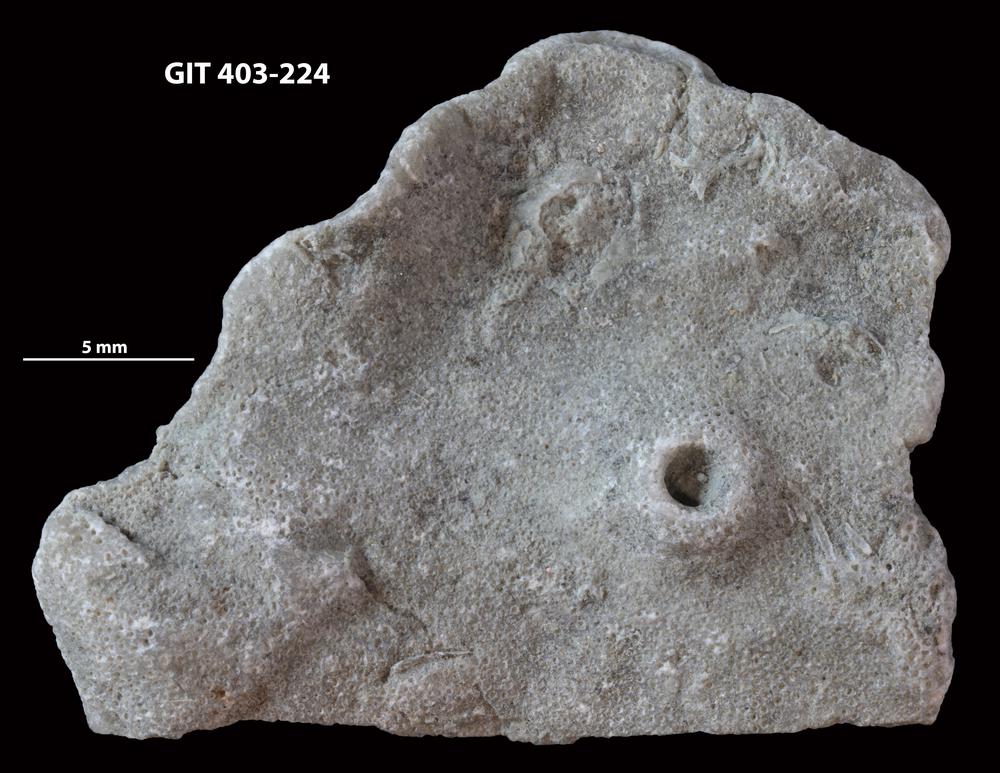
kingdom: Animalia
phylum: Bryozoa
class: Stenolaemata
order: Cystoporida
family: Fistuliporidae
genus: Fistulipora
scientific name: Fistulipora przhidolensis
